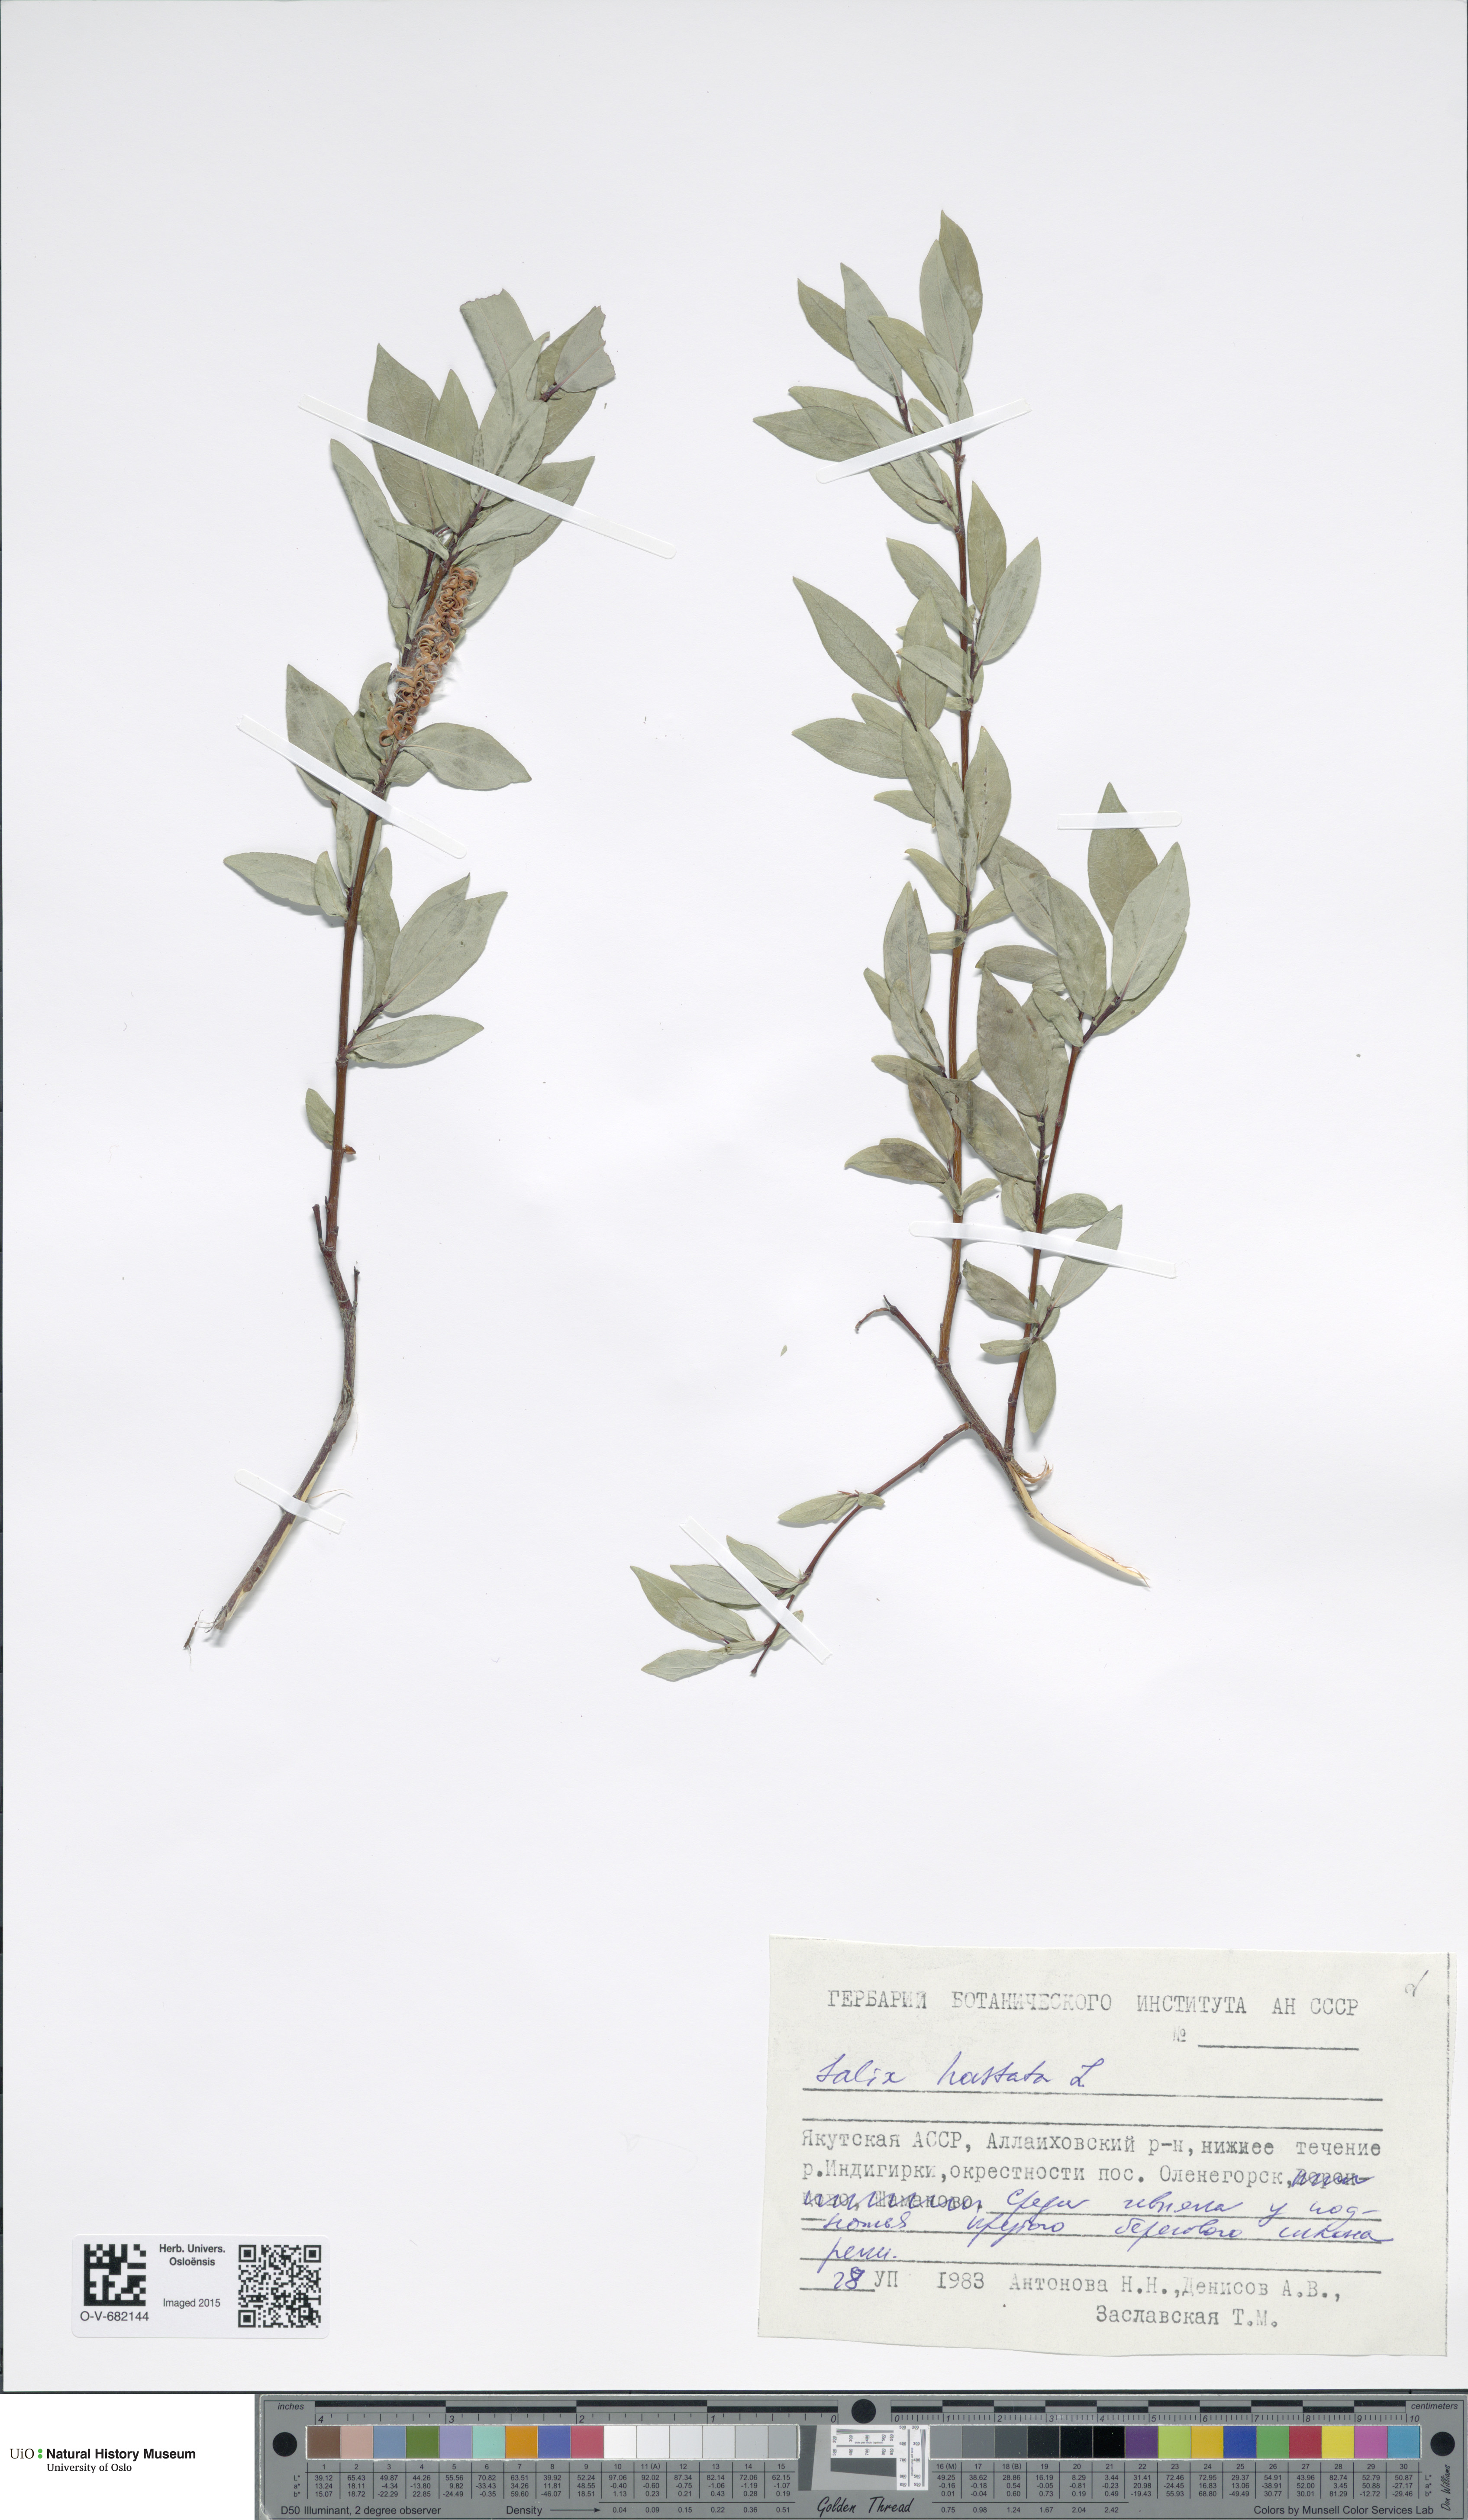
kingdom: Plantae
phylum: Tracheophyta
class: Magnoliopsida
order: Malpighiales
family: Salicaceae
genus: Salix
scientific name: Salix hastata
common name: Halberd willow
